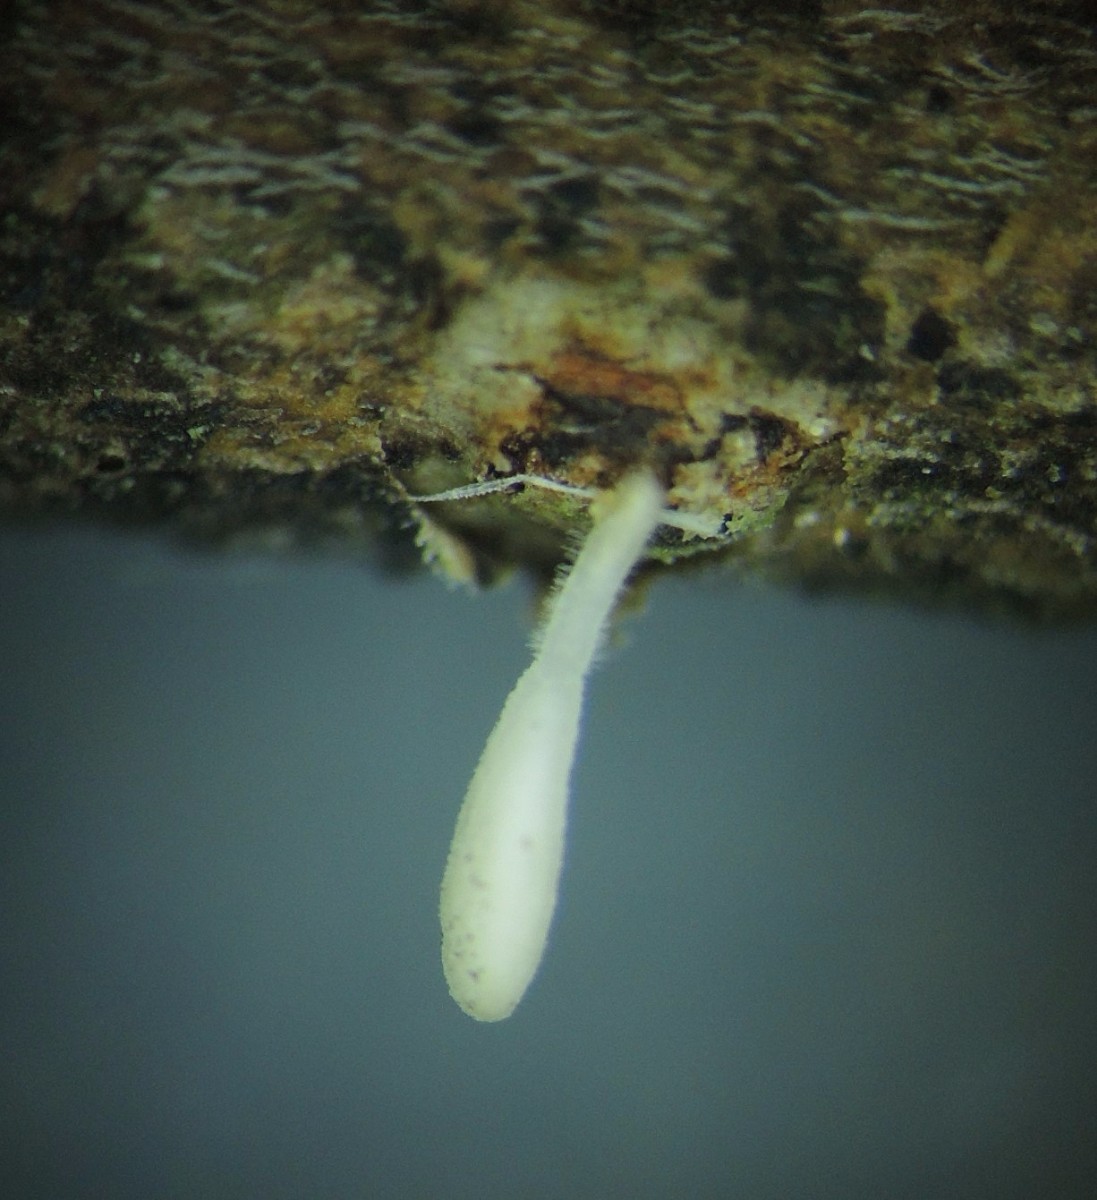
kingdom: Fungi
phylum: Basidiomycota
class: Agaricomycetes
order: Agaricales
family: Typhulaceae
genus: Typhula
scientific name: Typhula spathulata
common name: aske-trådkølle
